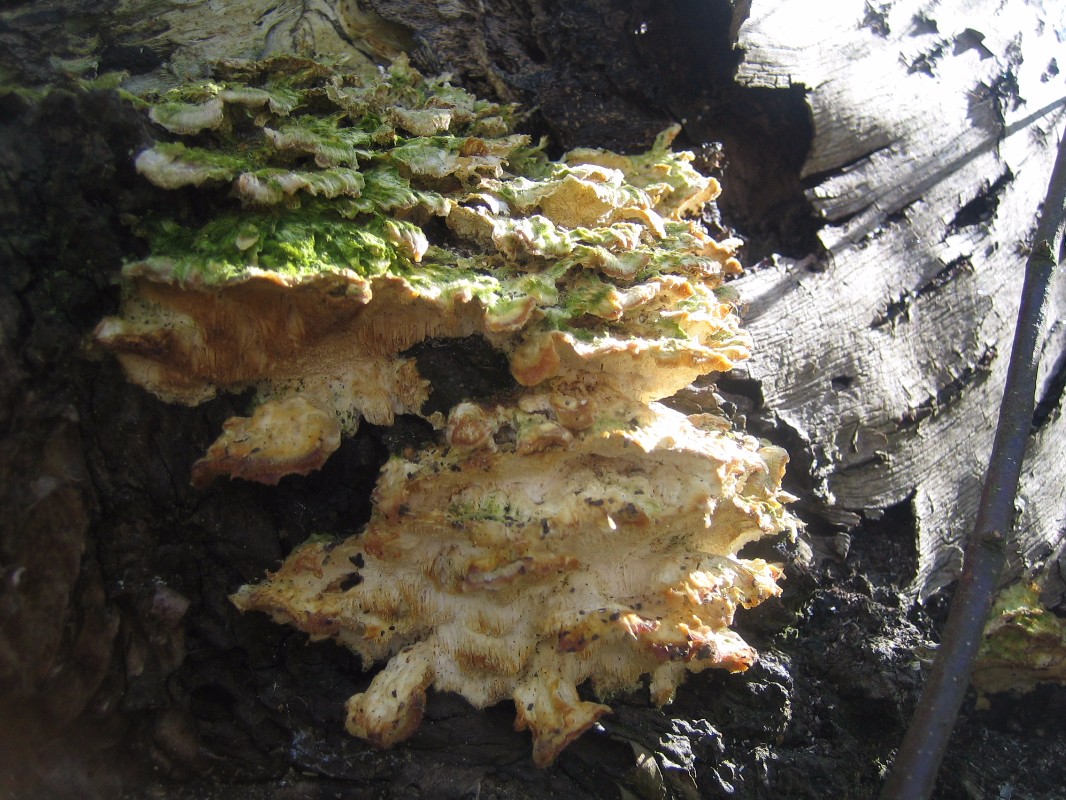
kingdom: Fungi
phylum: Basidiomycota
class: Agaricomycetes
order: Polyporales
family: Polyporaceae
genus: Trametes
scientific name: Trametes ochracea
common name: bæltet læderporesvamp
